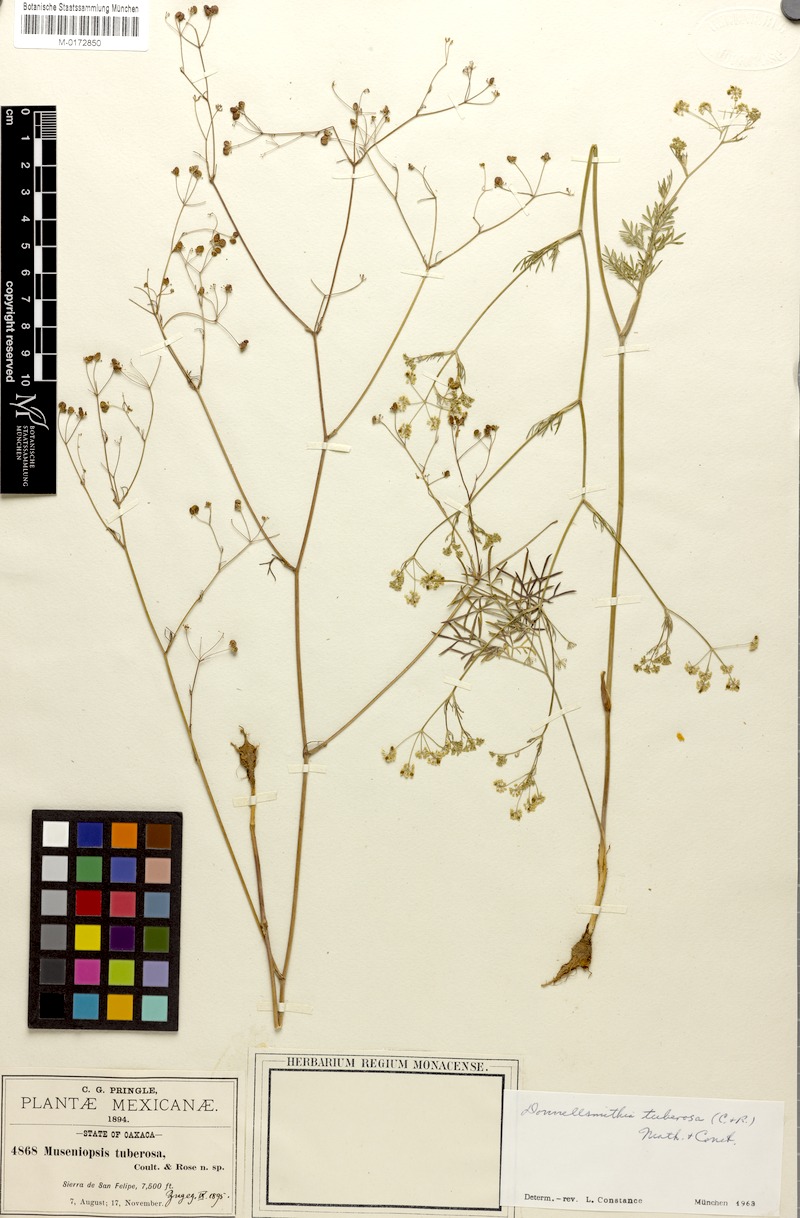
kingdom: Plantae
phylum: Tracheophyta
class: Magnoliopsida
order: Apiales
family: Apiaceae
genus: Donnellsmithia
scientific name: Donnellsmithia tuberosa
